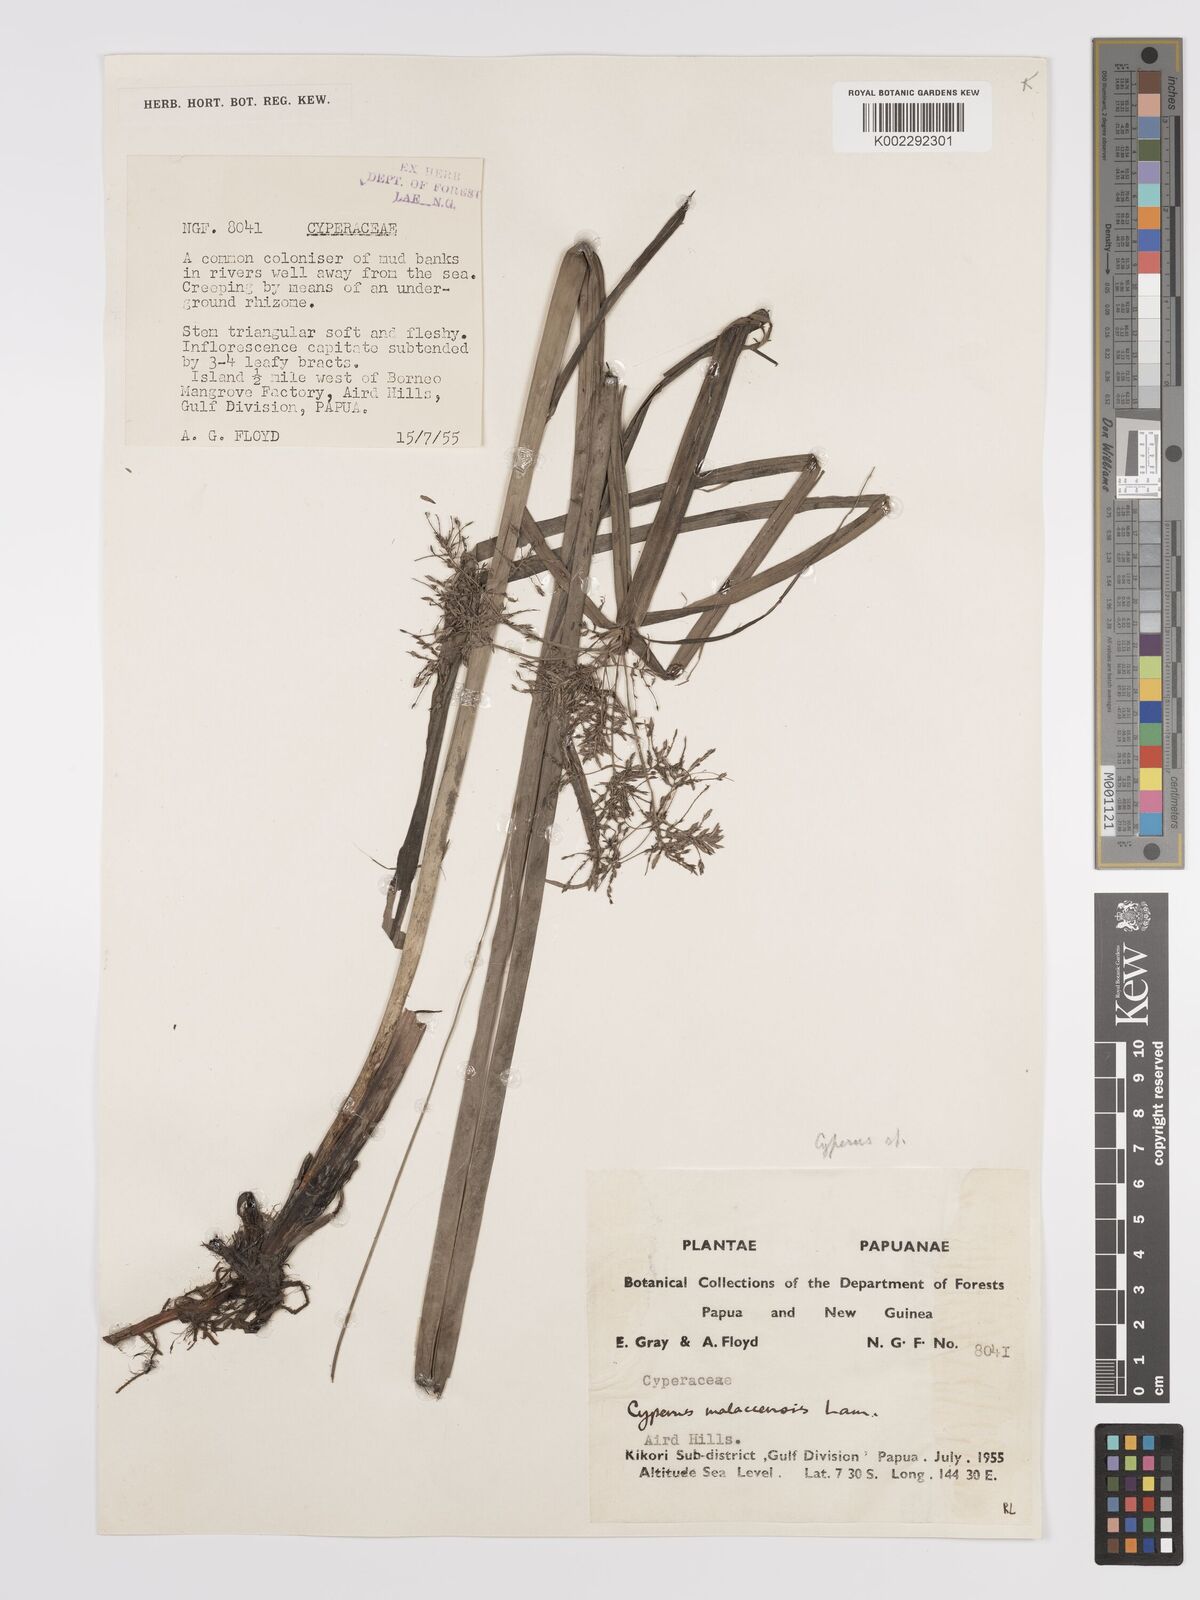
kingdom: Plantae
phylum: Tracheophyta
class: Liliopsida
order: Poales
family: Cyperaceae
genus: Cyperus
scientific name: Cyperus malaccensis
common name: Shichito matgrass
